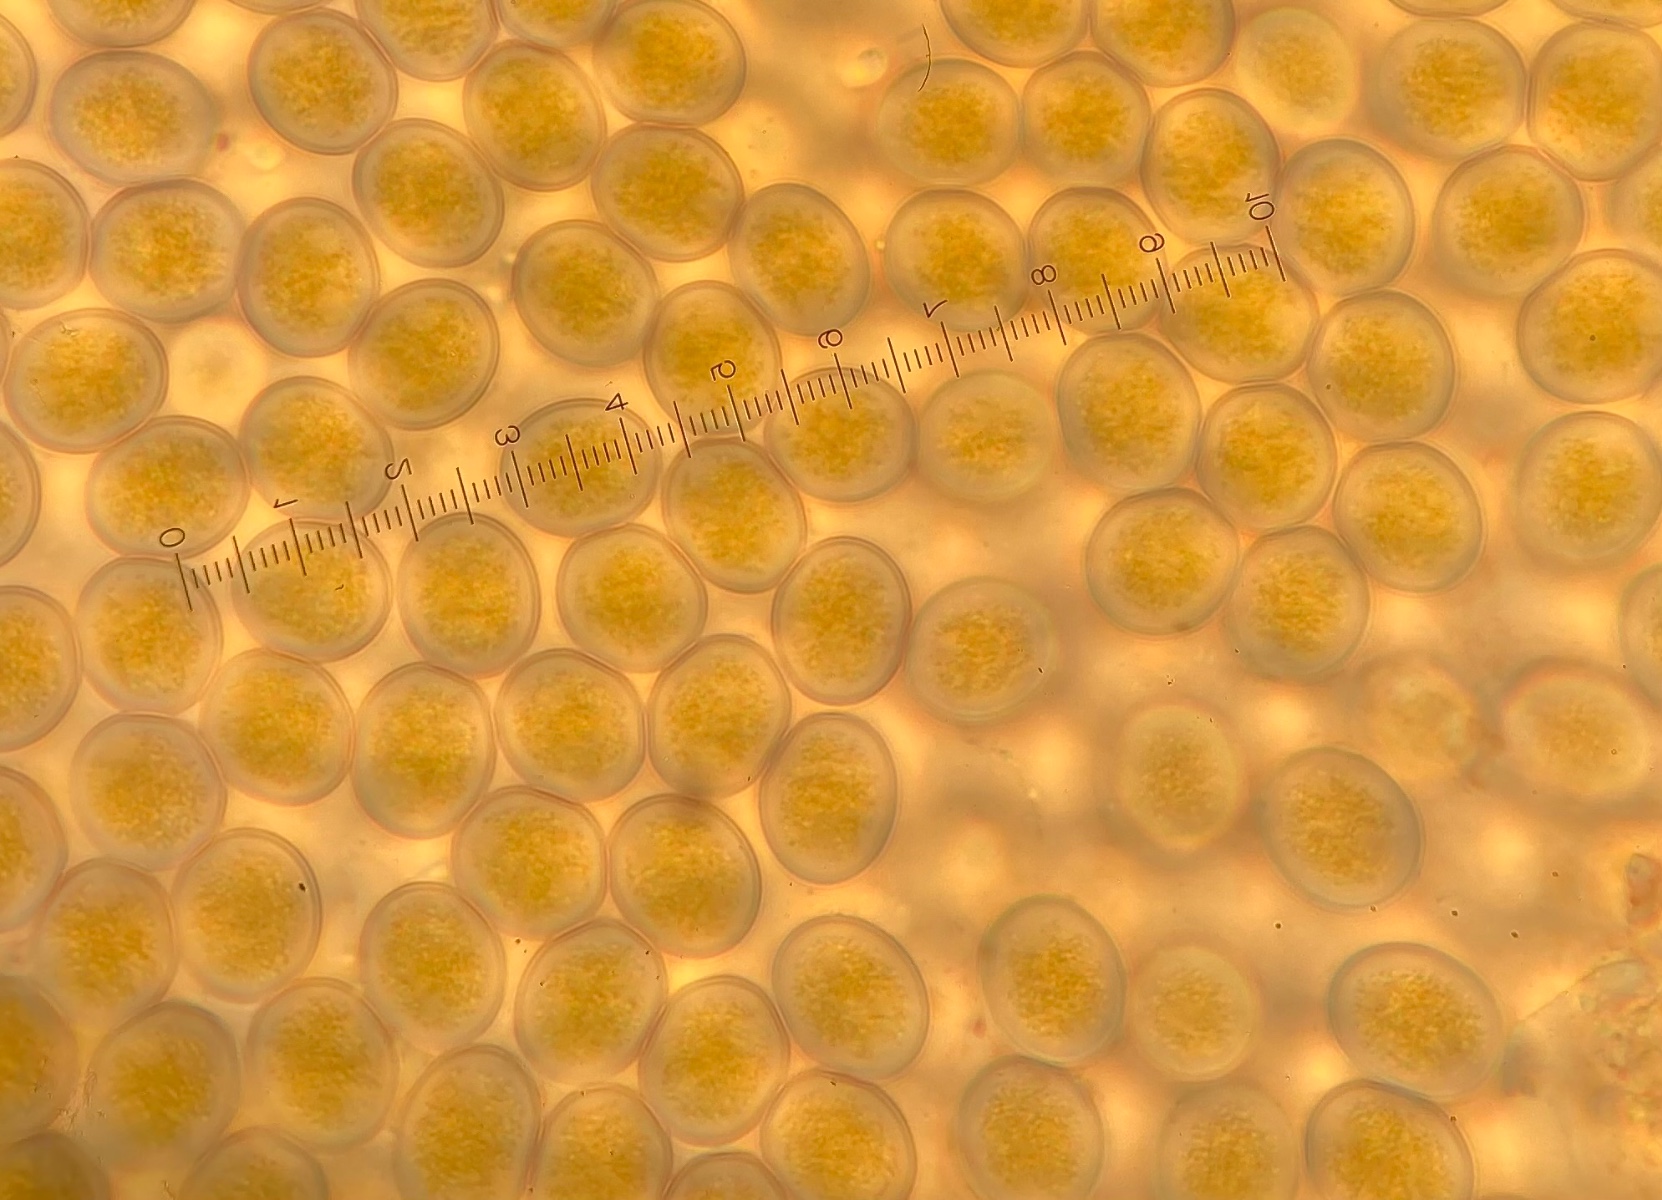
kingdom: Fungi
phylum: Mucoromycota
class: Mucoromycetes
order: Mucorales
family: Pilobolaceae
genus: Pilobolus
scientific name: Pilobolus lentiger
